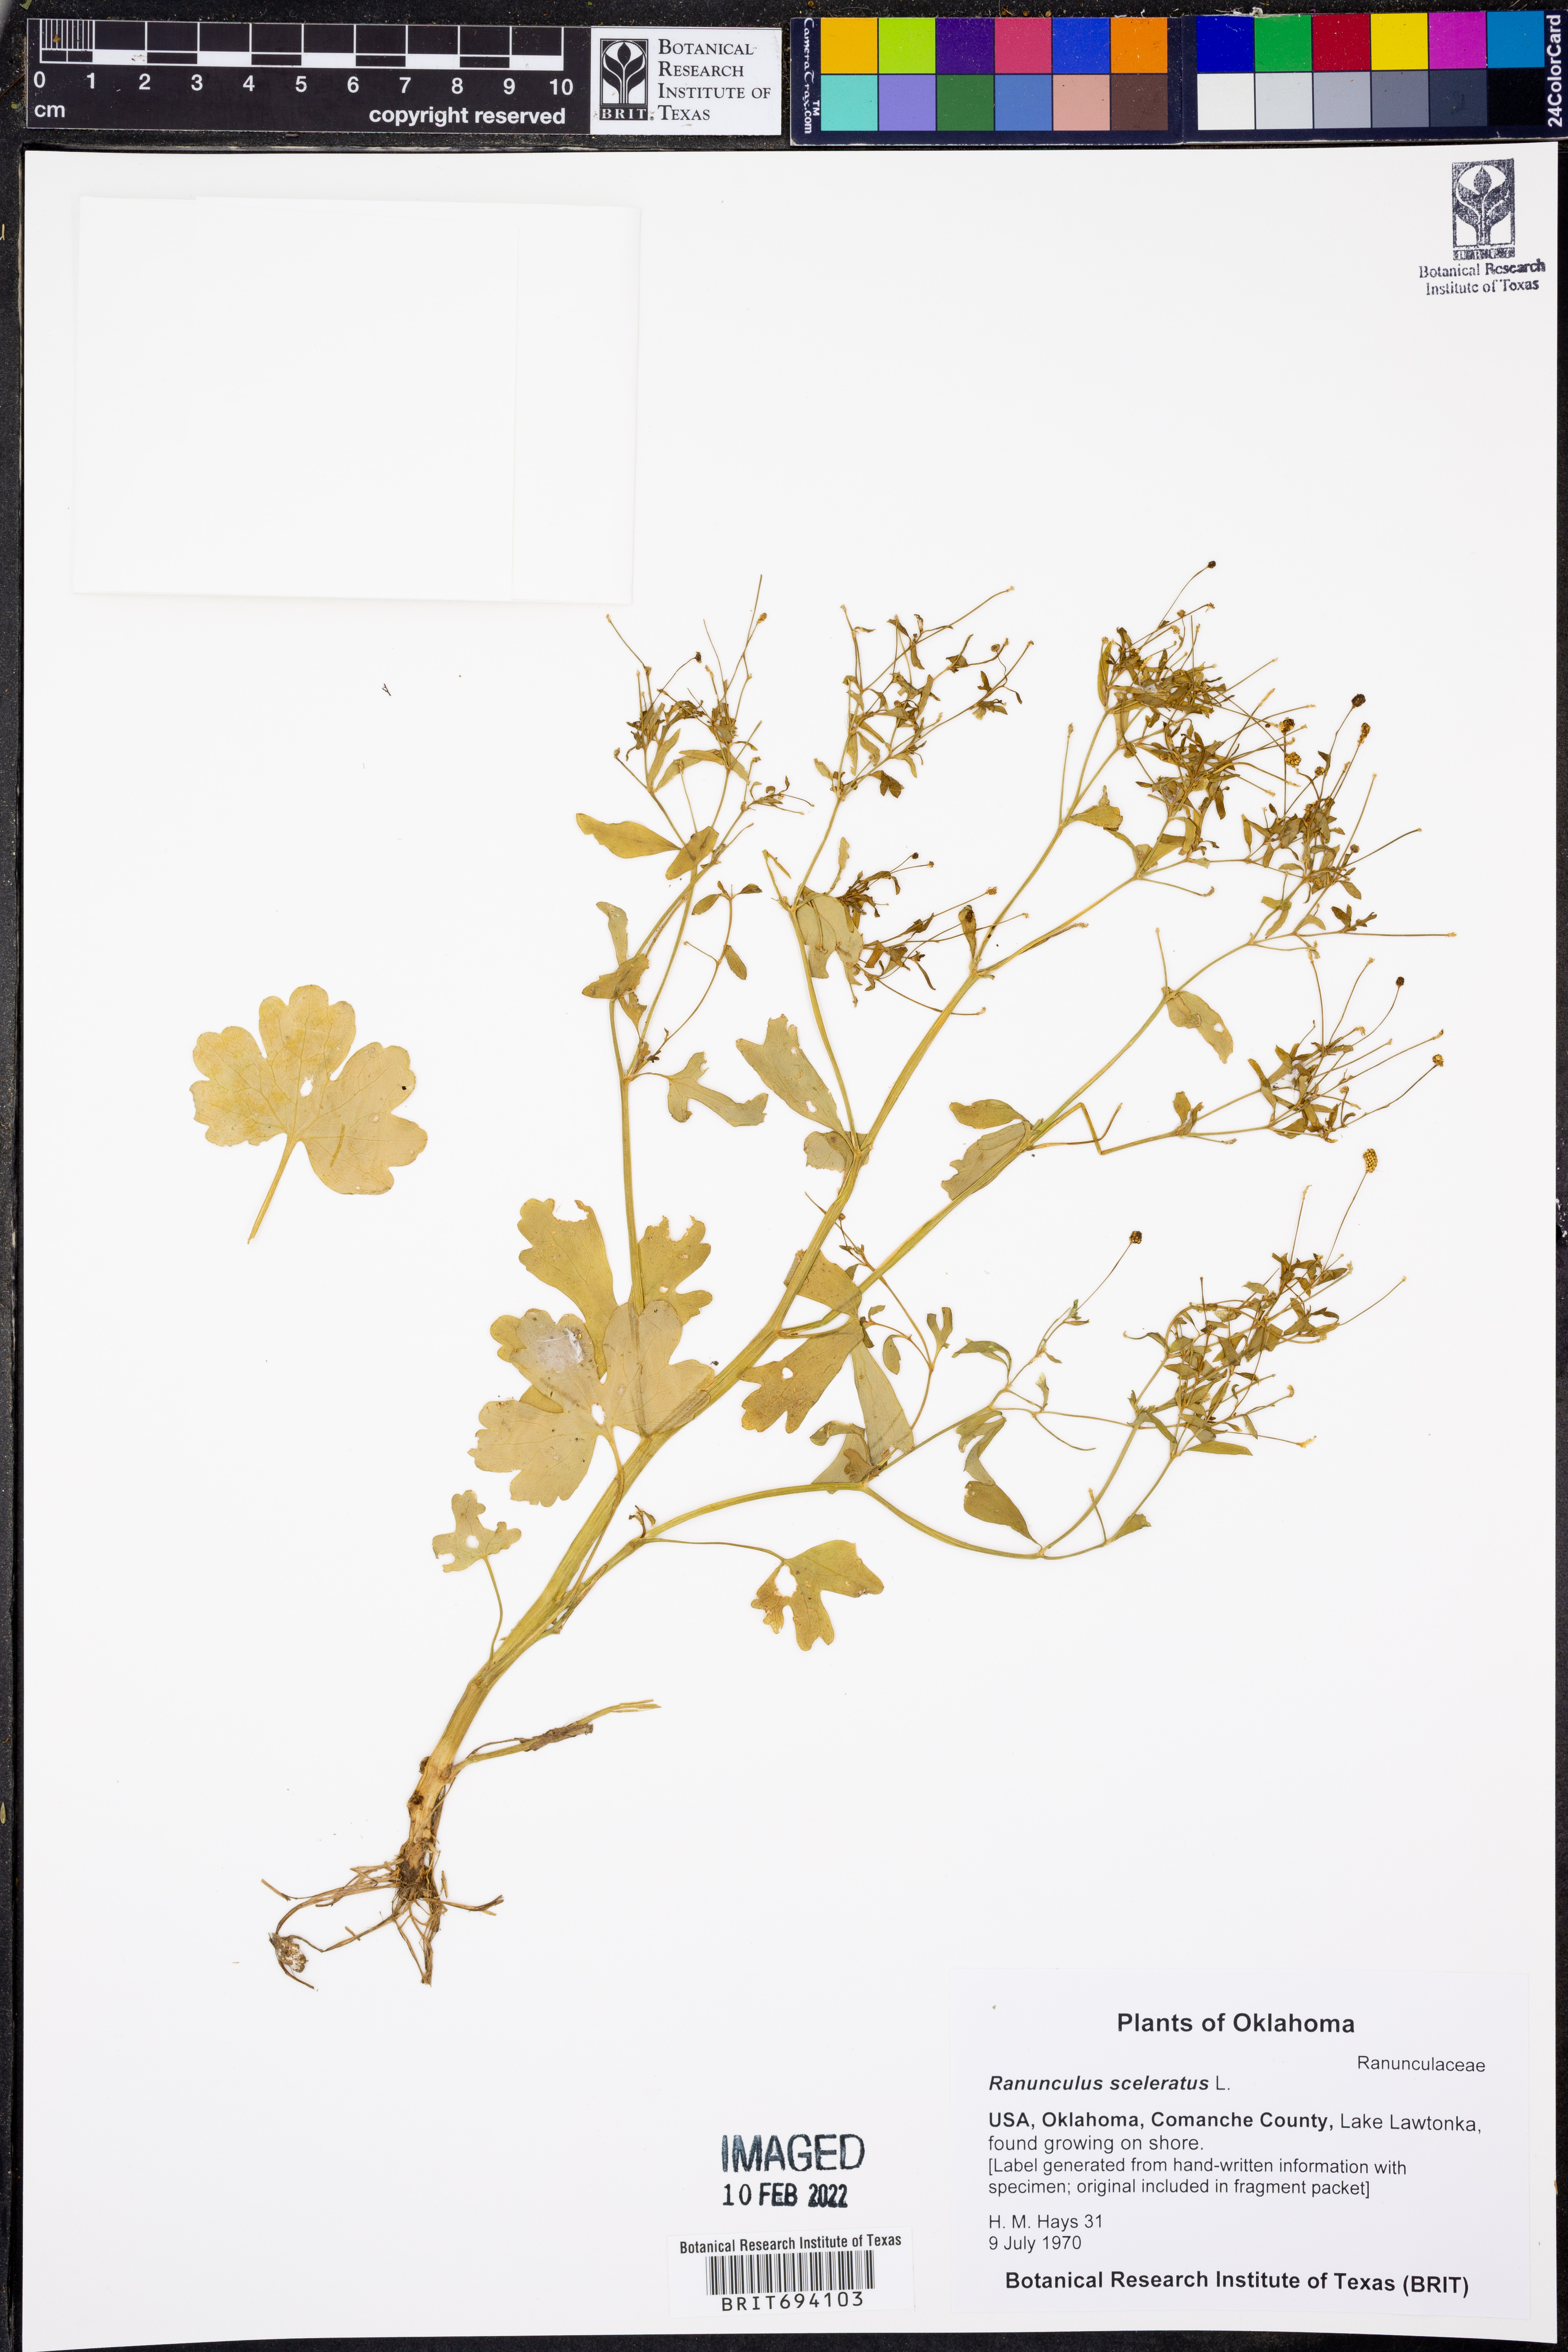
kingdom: Plantae
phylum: Tracheophyta
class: Magnoliopsida
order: Ranunculales
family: Ranunculaceae
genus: Ranunculus
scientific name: Ranunculus sceleratus
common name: Celery-leaved buttercup
